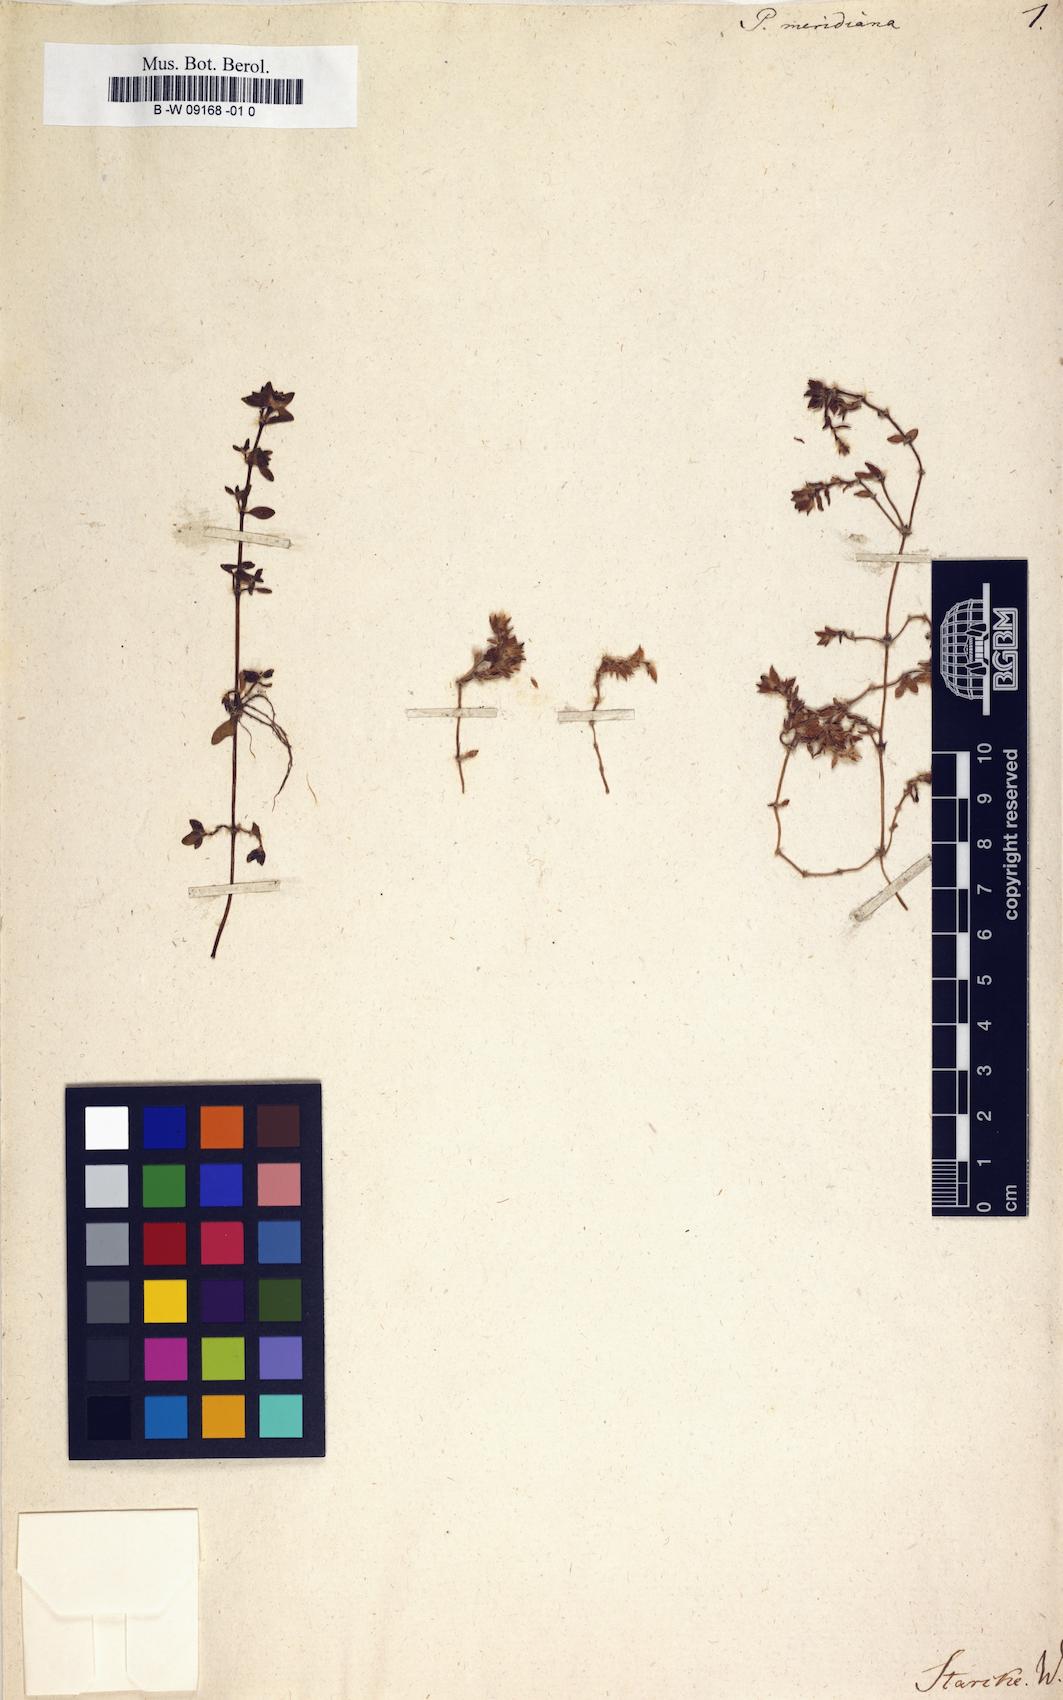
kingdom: Plantae
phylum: Tracheophyta
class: Magnoliopsida
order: Caryophyllales
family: Portulacaceae
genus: Portulaca
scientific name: Portulaca quadrifida
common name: Chickenweed
